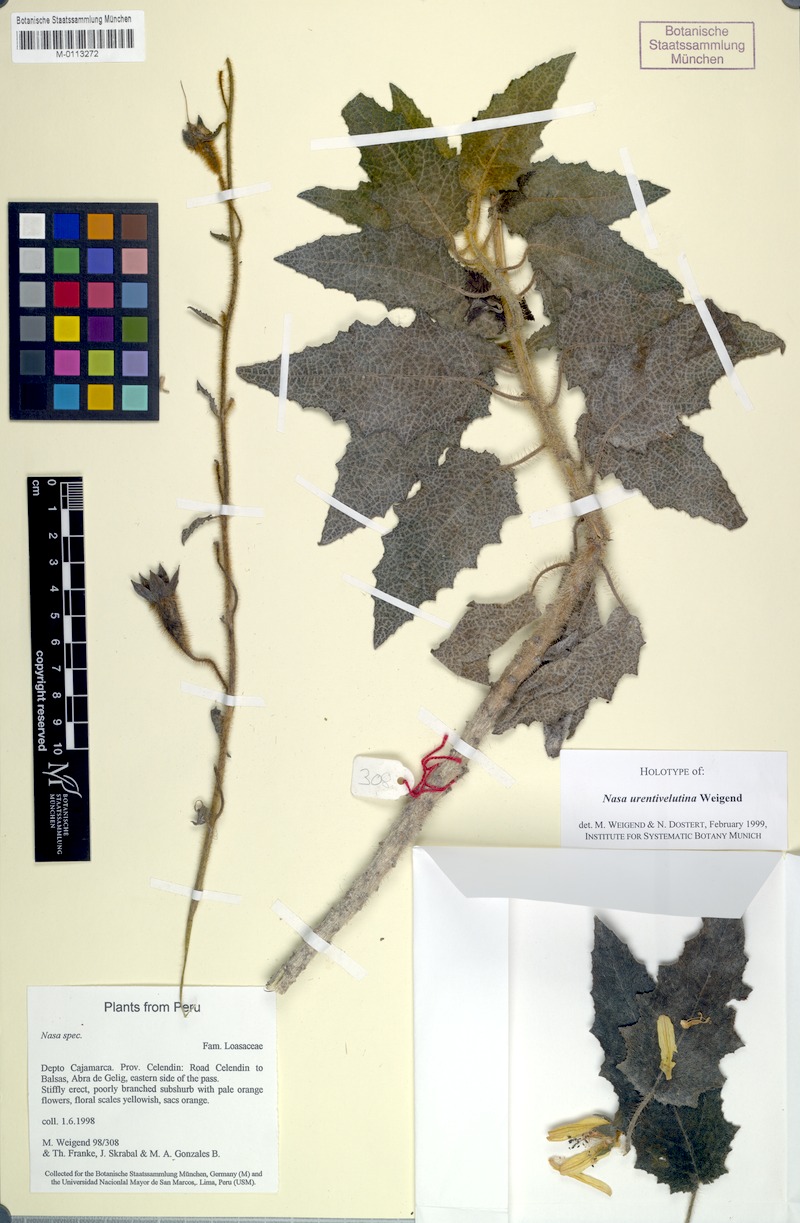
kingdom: Plantae
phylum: Tracheophyta
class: Magnoliopsida
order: Cornales
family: Loasaceae
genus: Nasa
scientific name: Nasa urentivelutina
